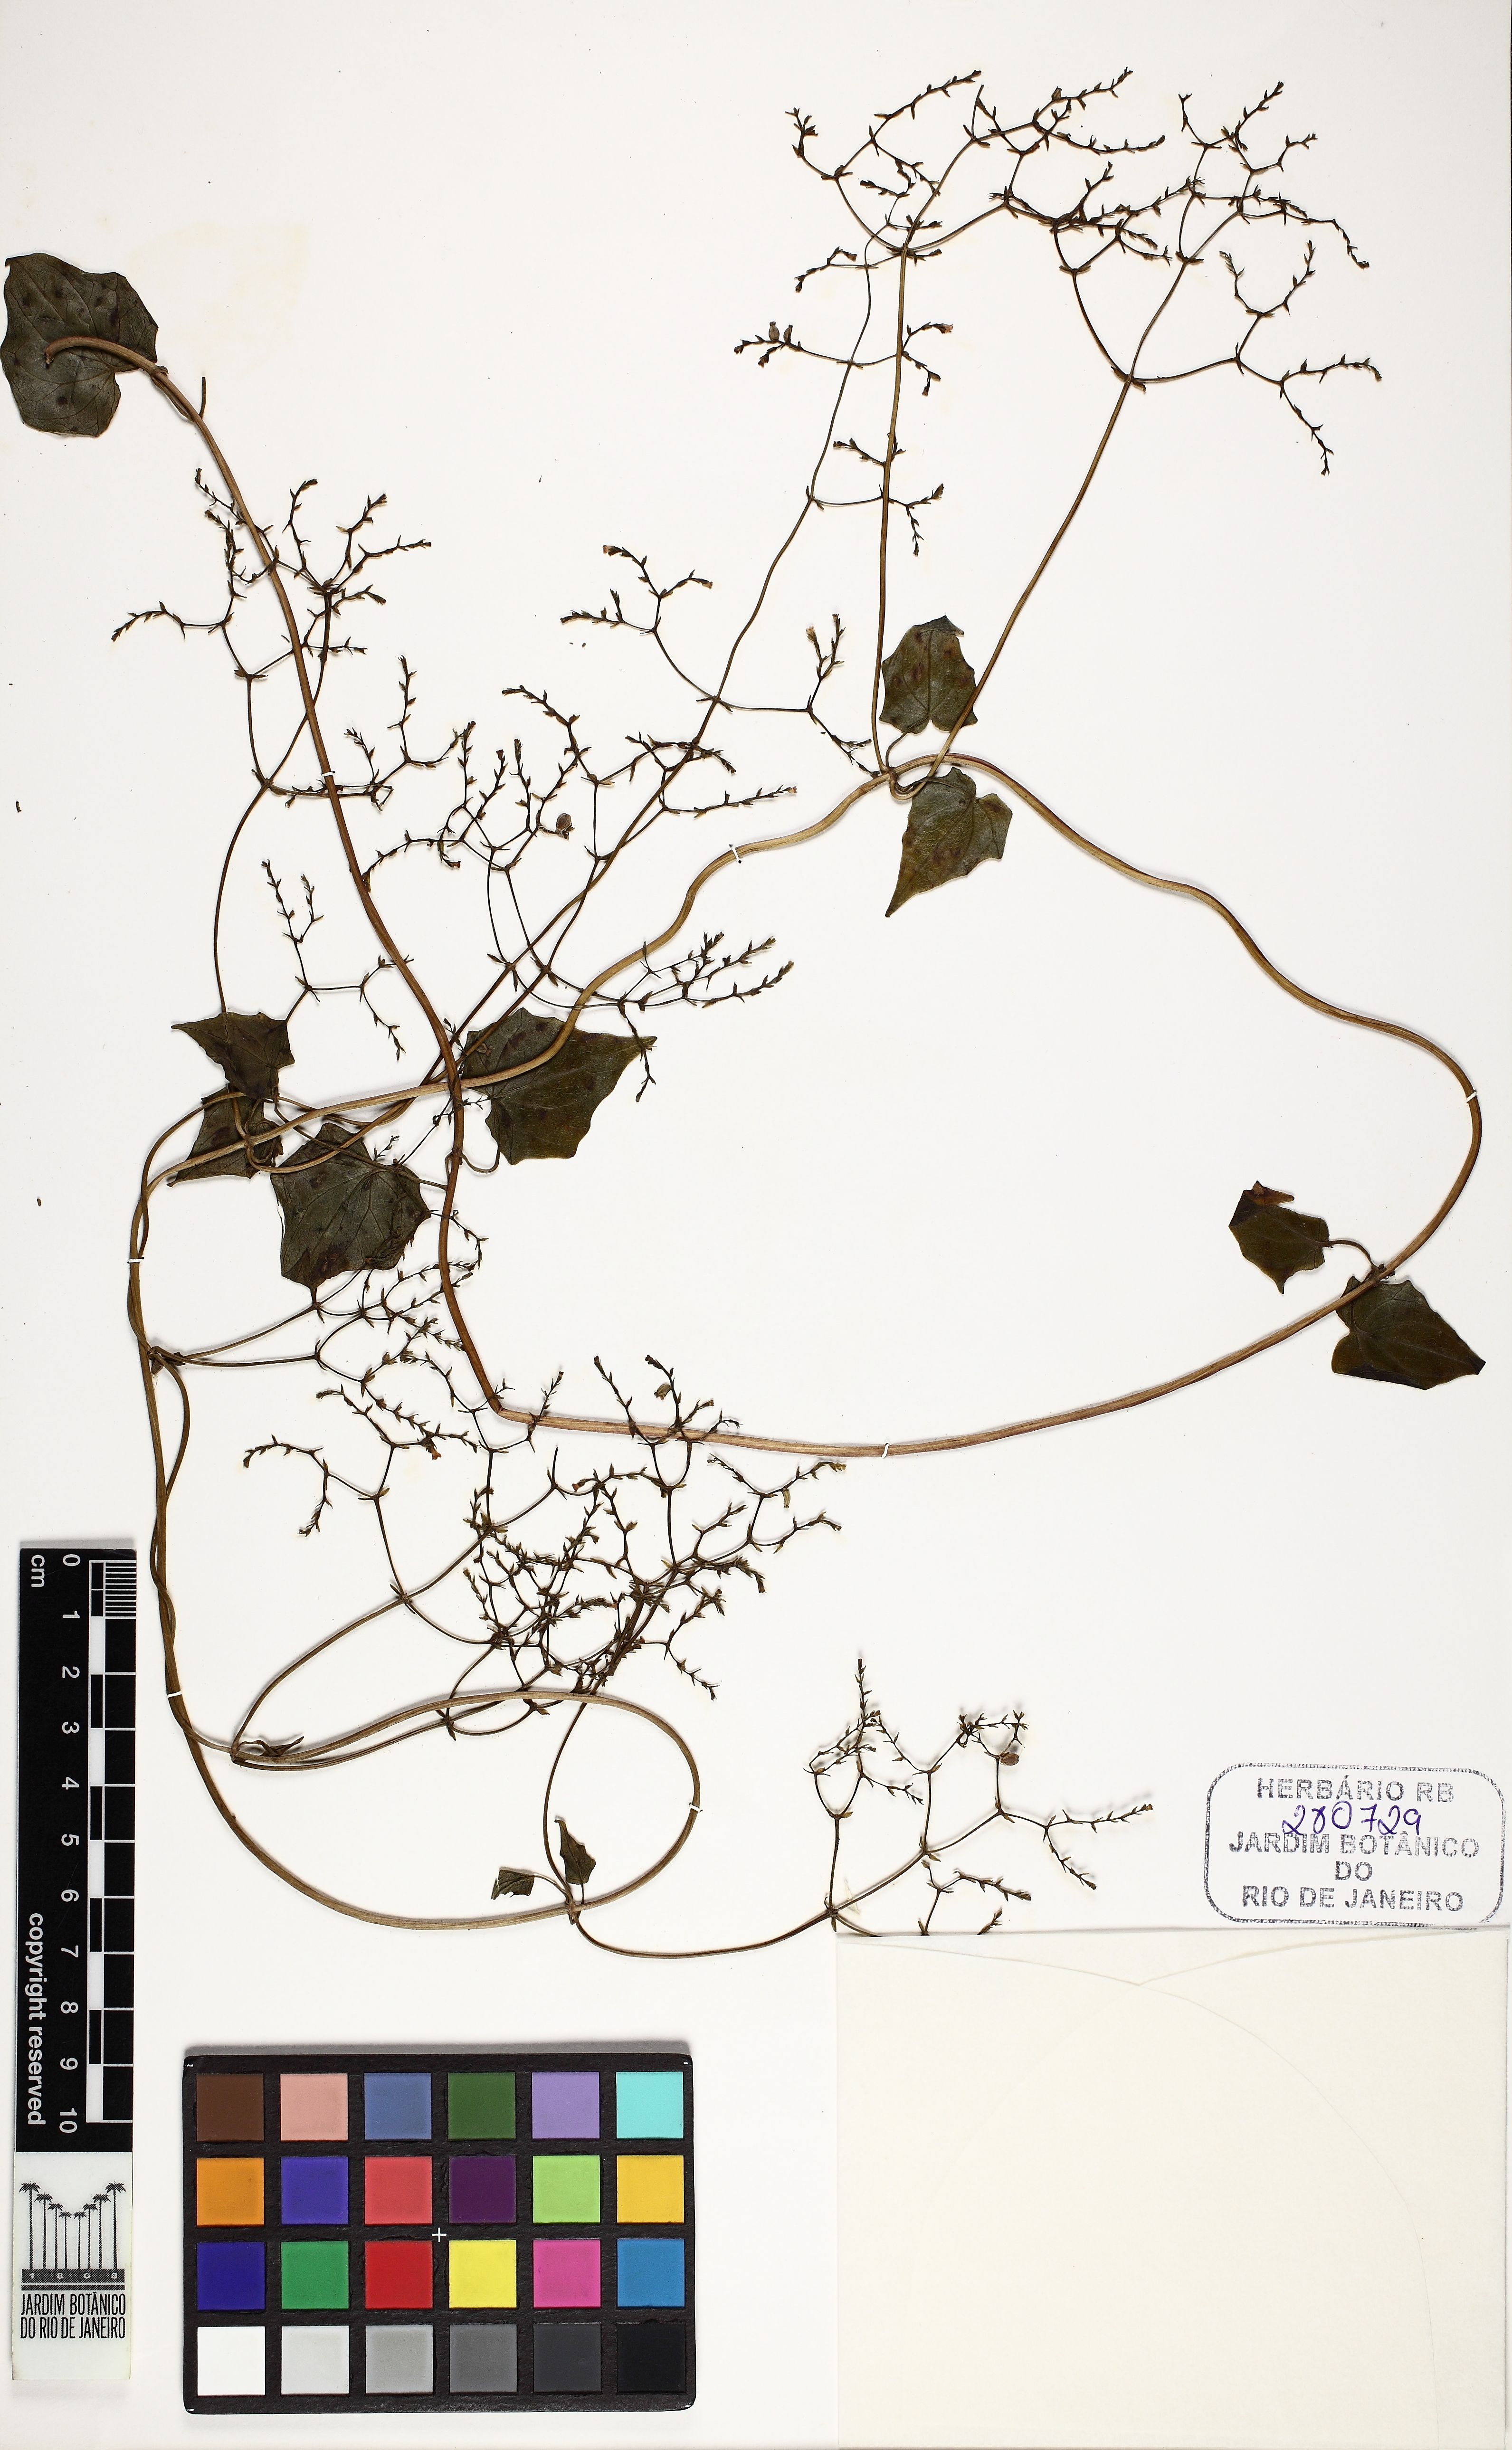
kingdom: Plantae
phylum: Tracheophyta
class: Magnoliopsida
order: Dipsacales
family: Caprifoliaceae
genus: Valeriana
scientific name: Valeriana scandens
